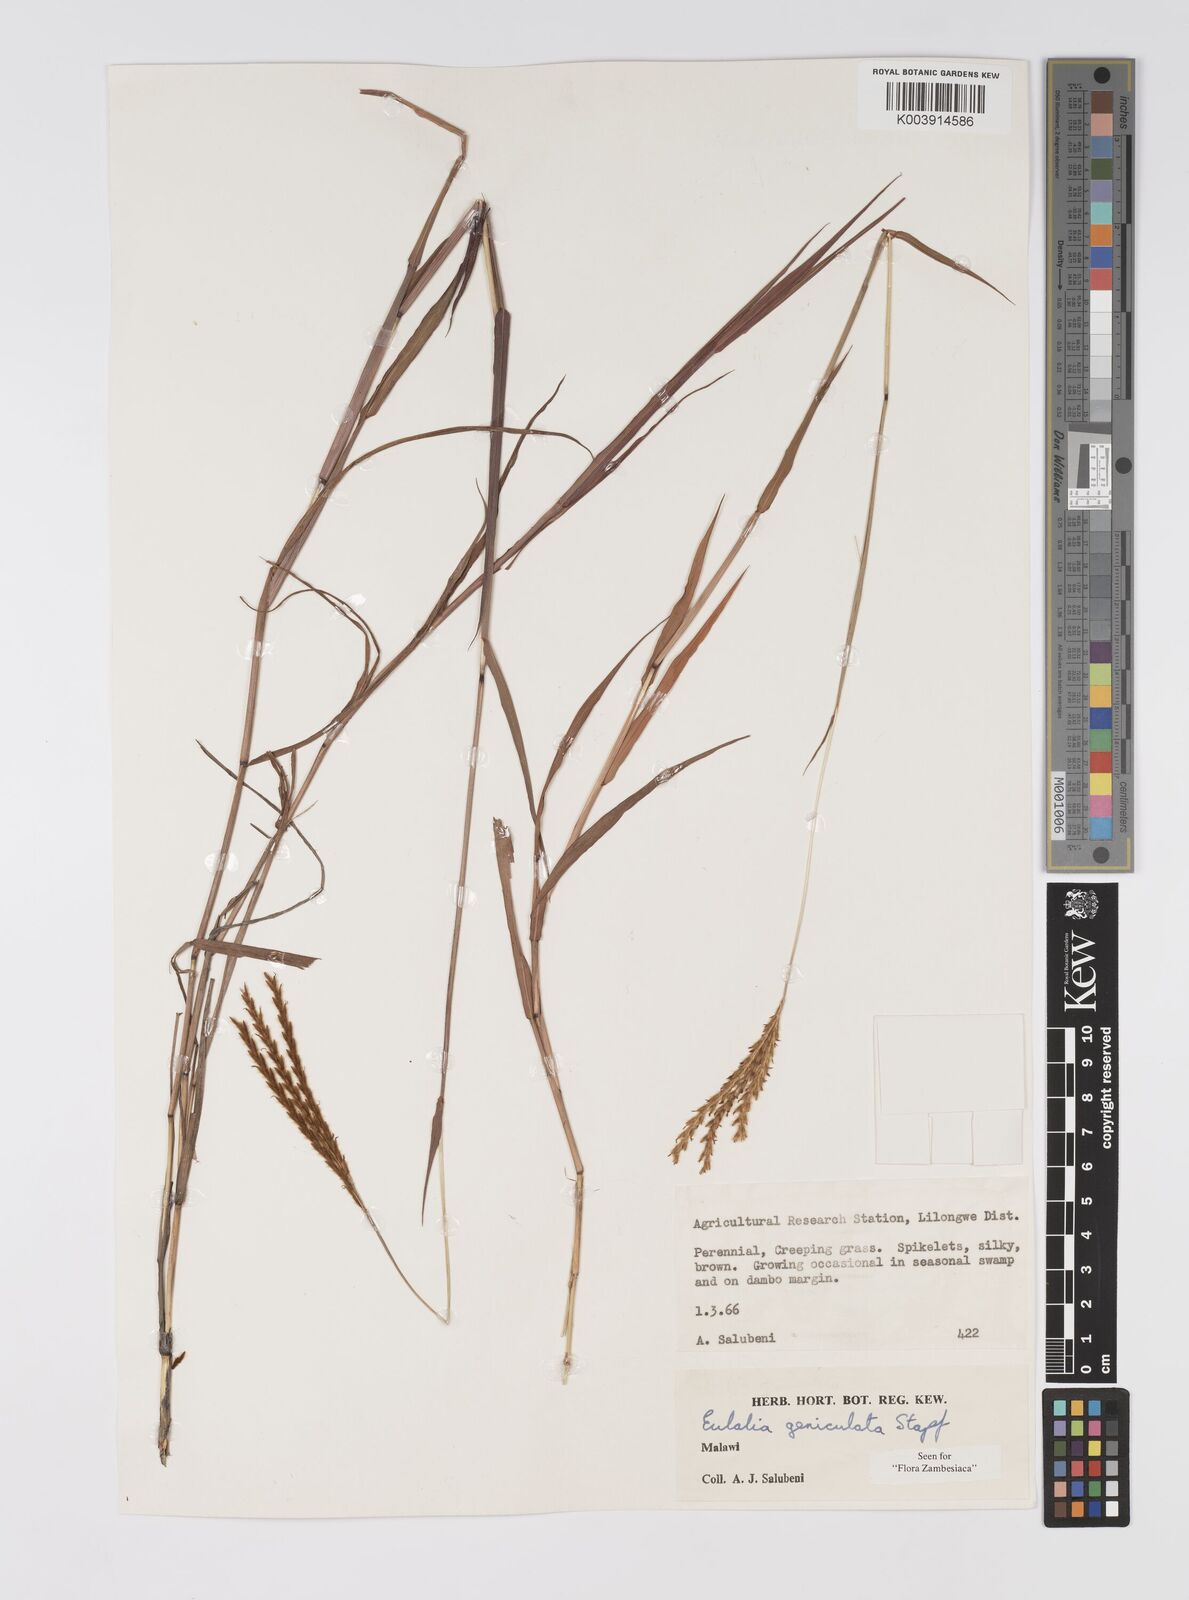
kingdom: Plantae
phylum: Tracheophyta
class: Liliopsida
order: Poales
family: Poaceae
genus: Eulalia
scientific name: Eulalia aurea
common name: Silky browntop
